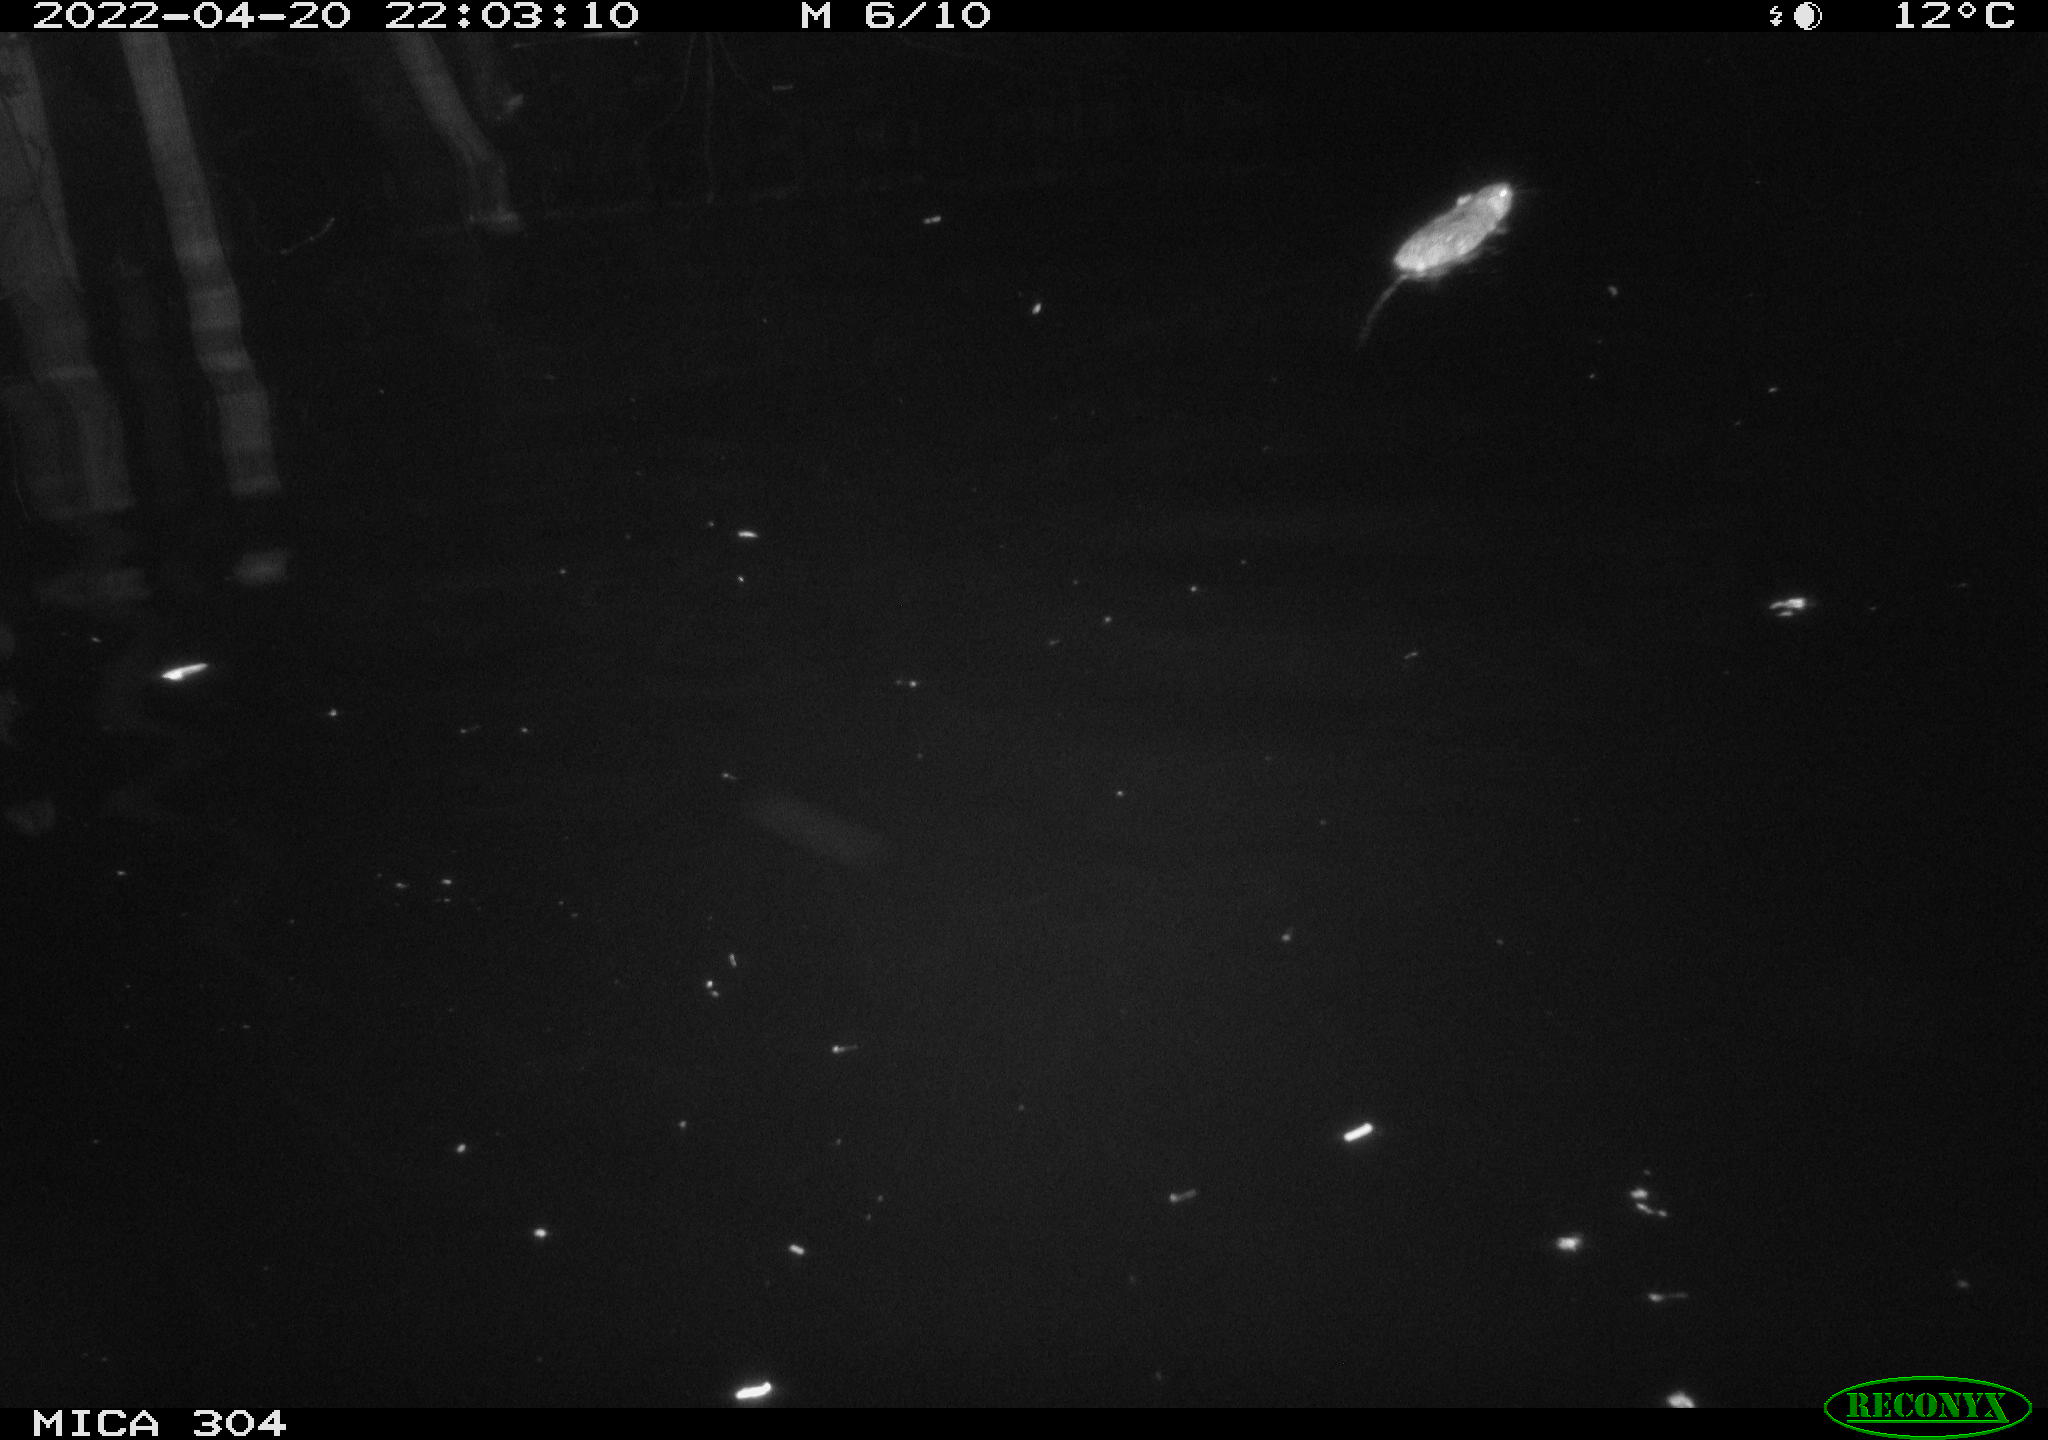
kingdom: Animalia
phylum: Chordata
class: Mammalia
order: Rodentia
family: Muridae
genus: Rattus
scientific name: Rattus norvegicus
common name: Brown rat
